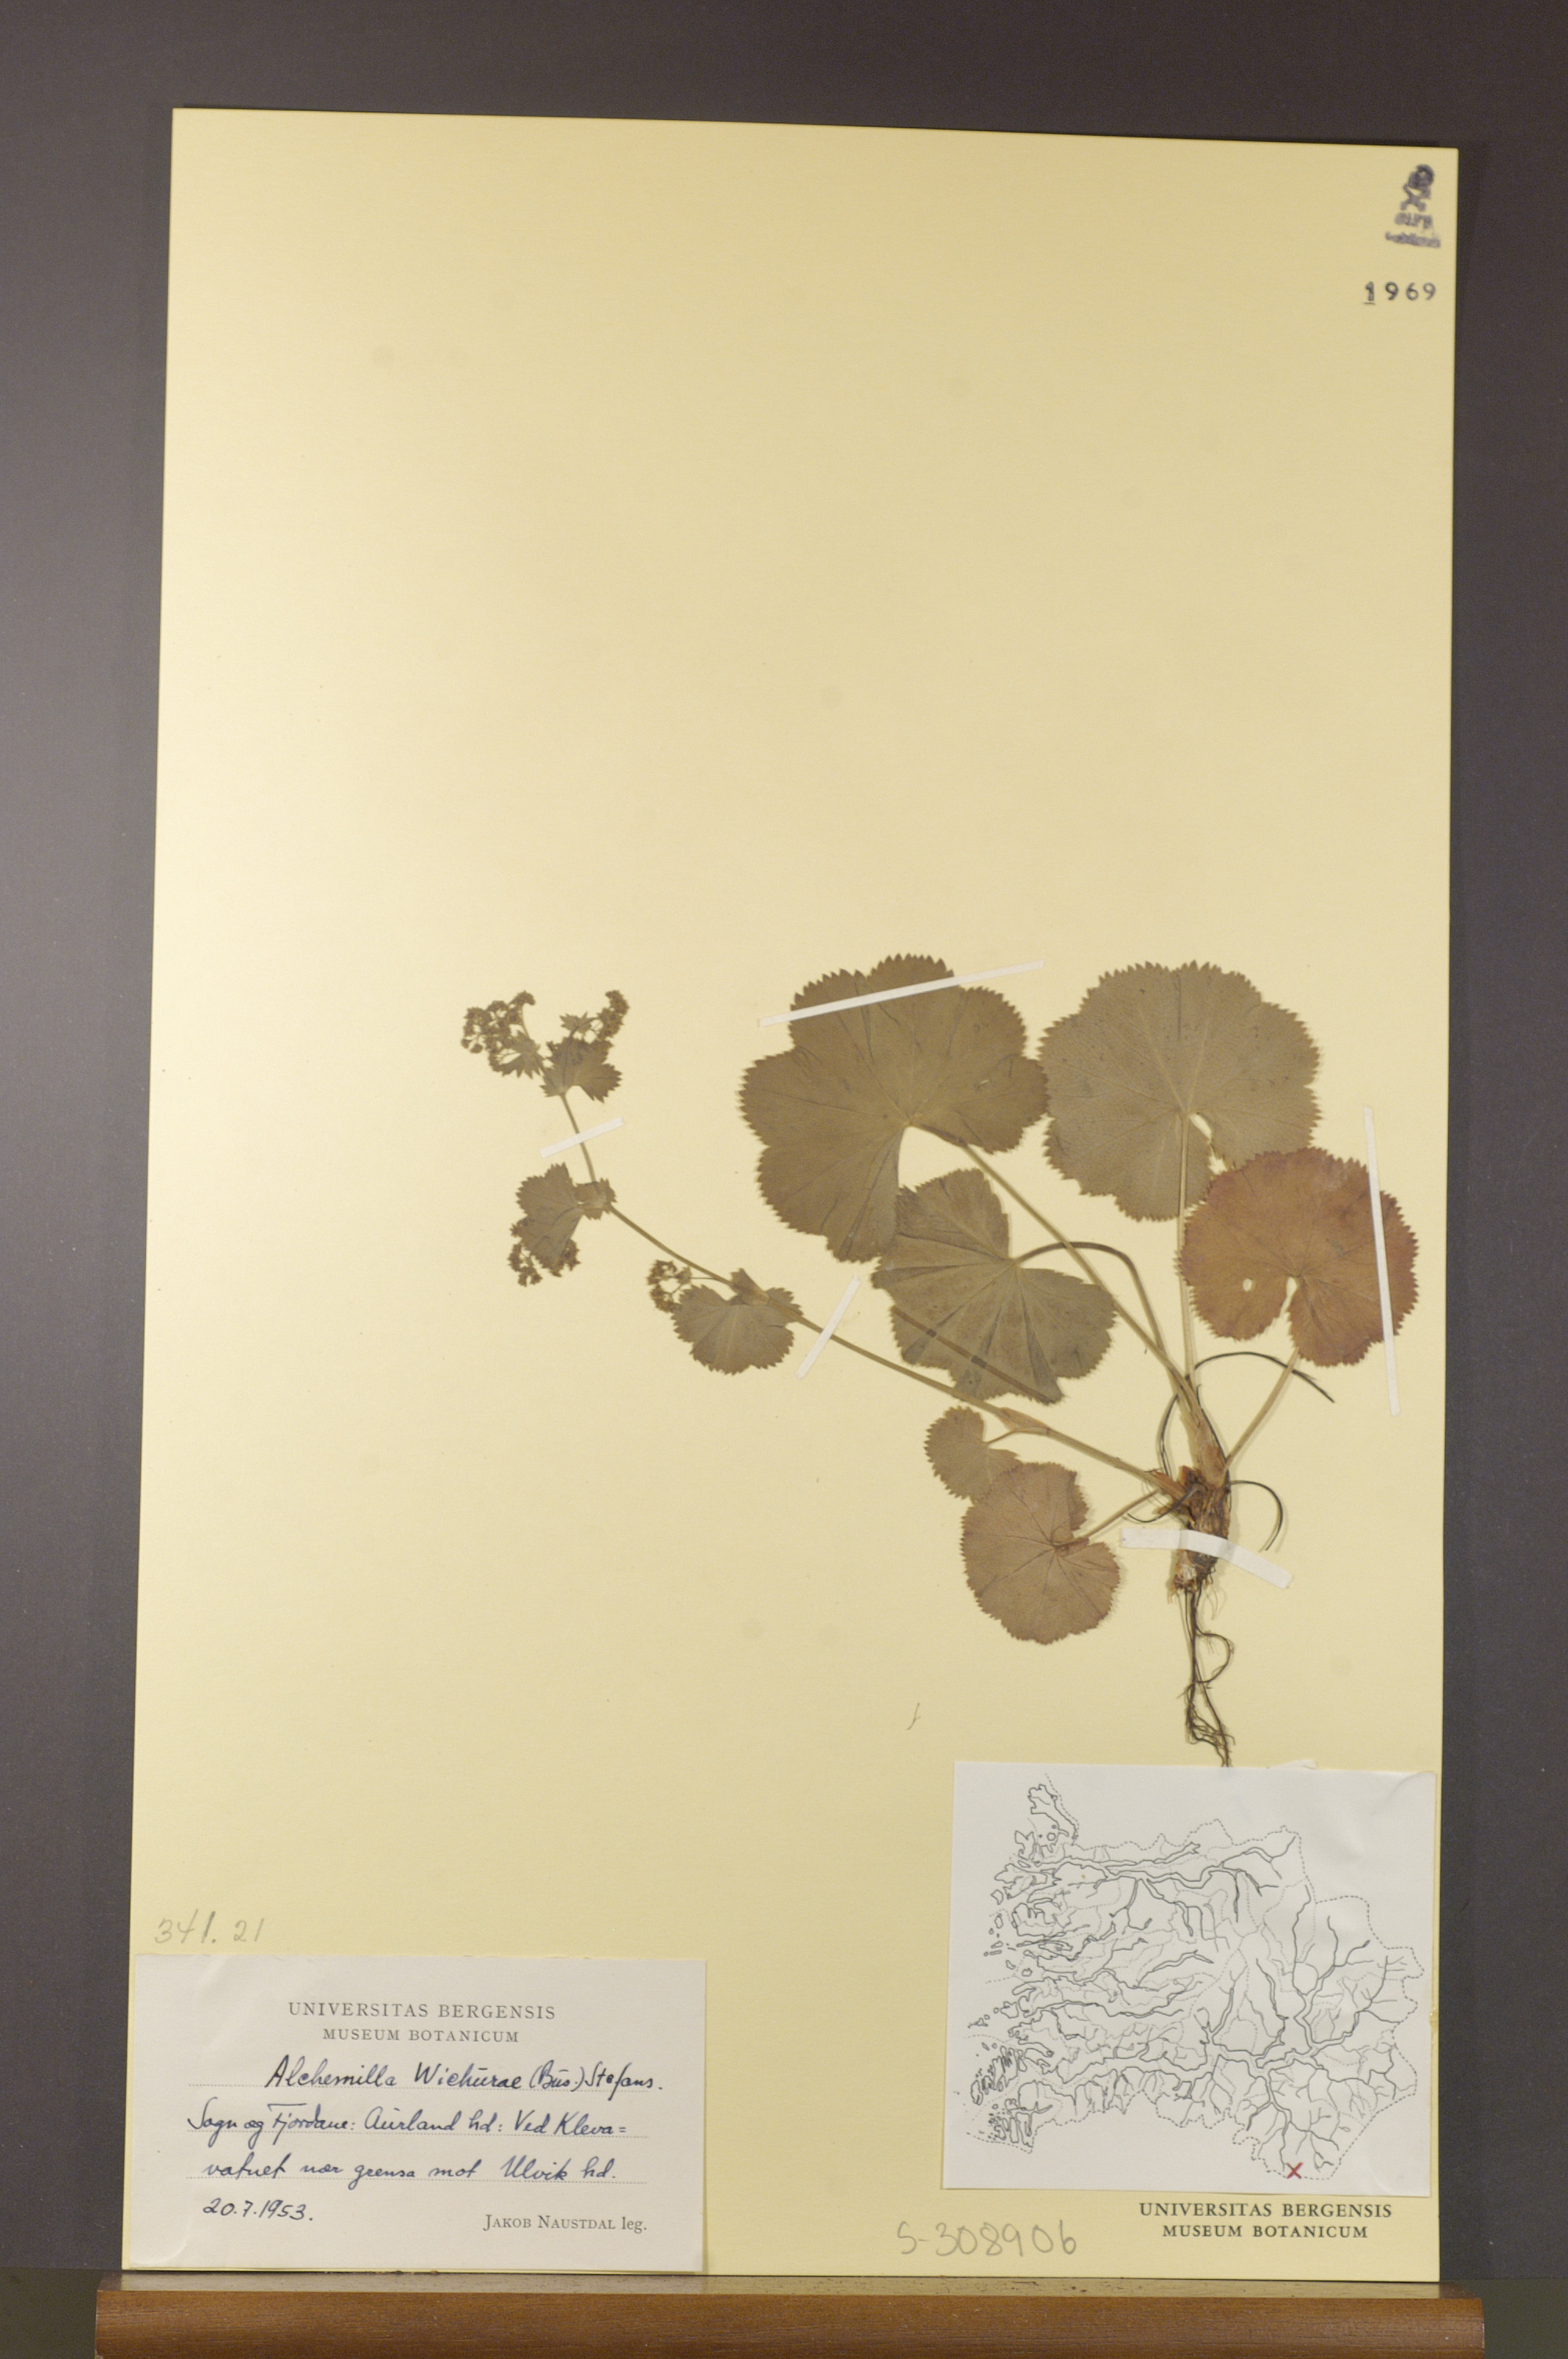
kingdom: Plantae
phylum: Tracheophyta
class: Magnoliopsida
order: Rosales
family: Rosaceae
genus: Alchemilla
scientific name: Alchemilla wichurae
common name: Rock lady's mantle
